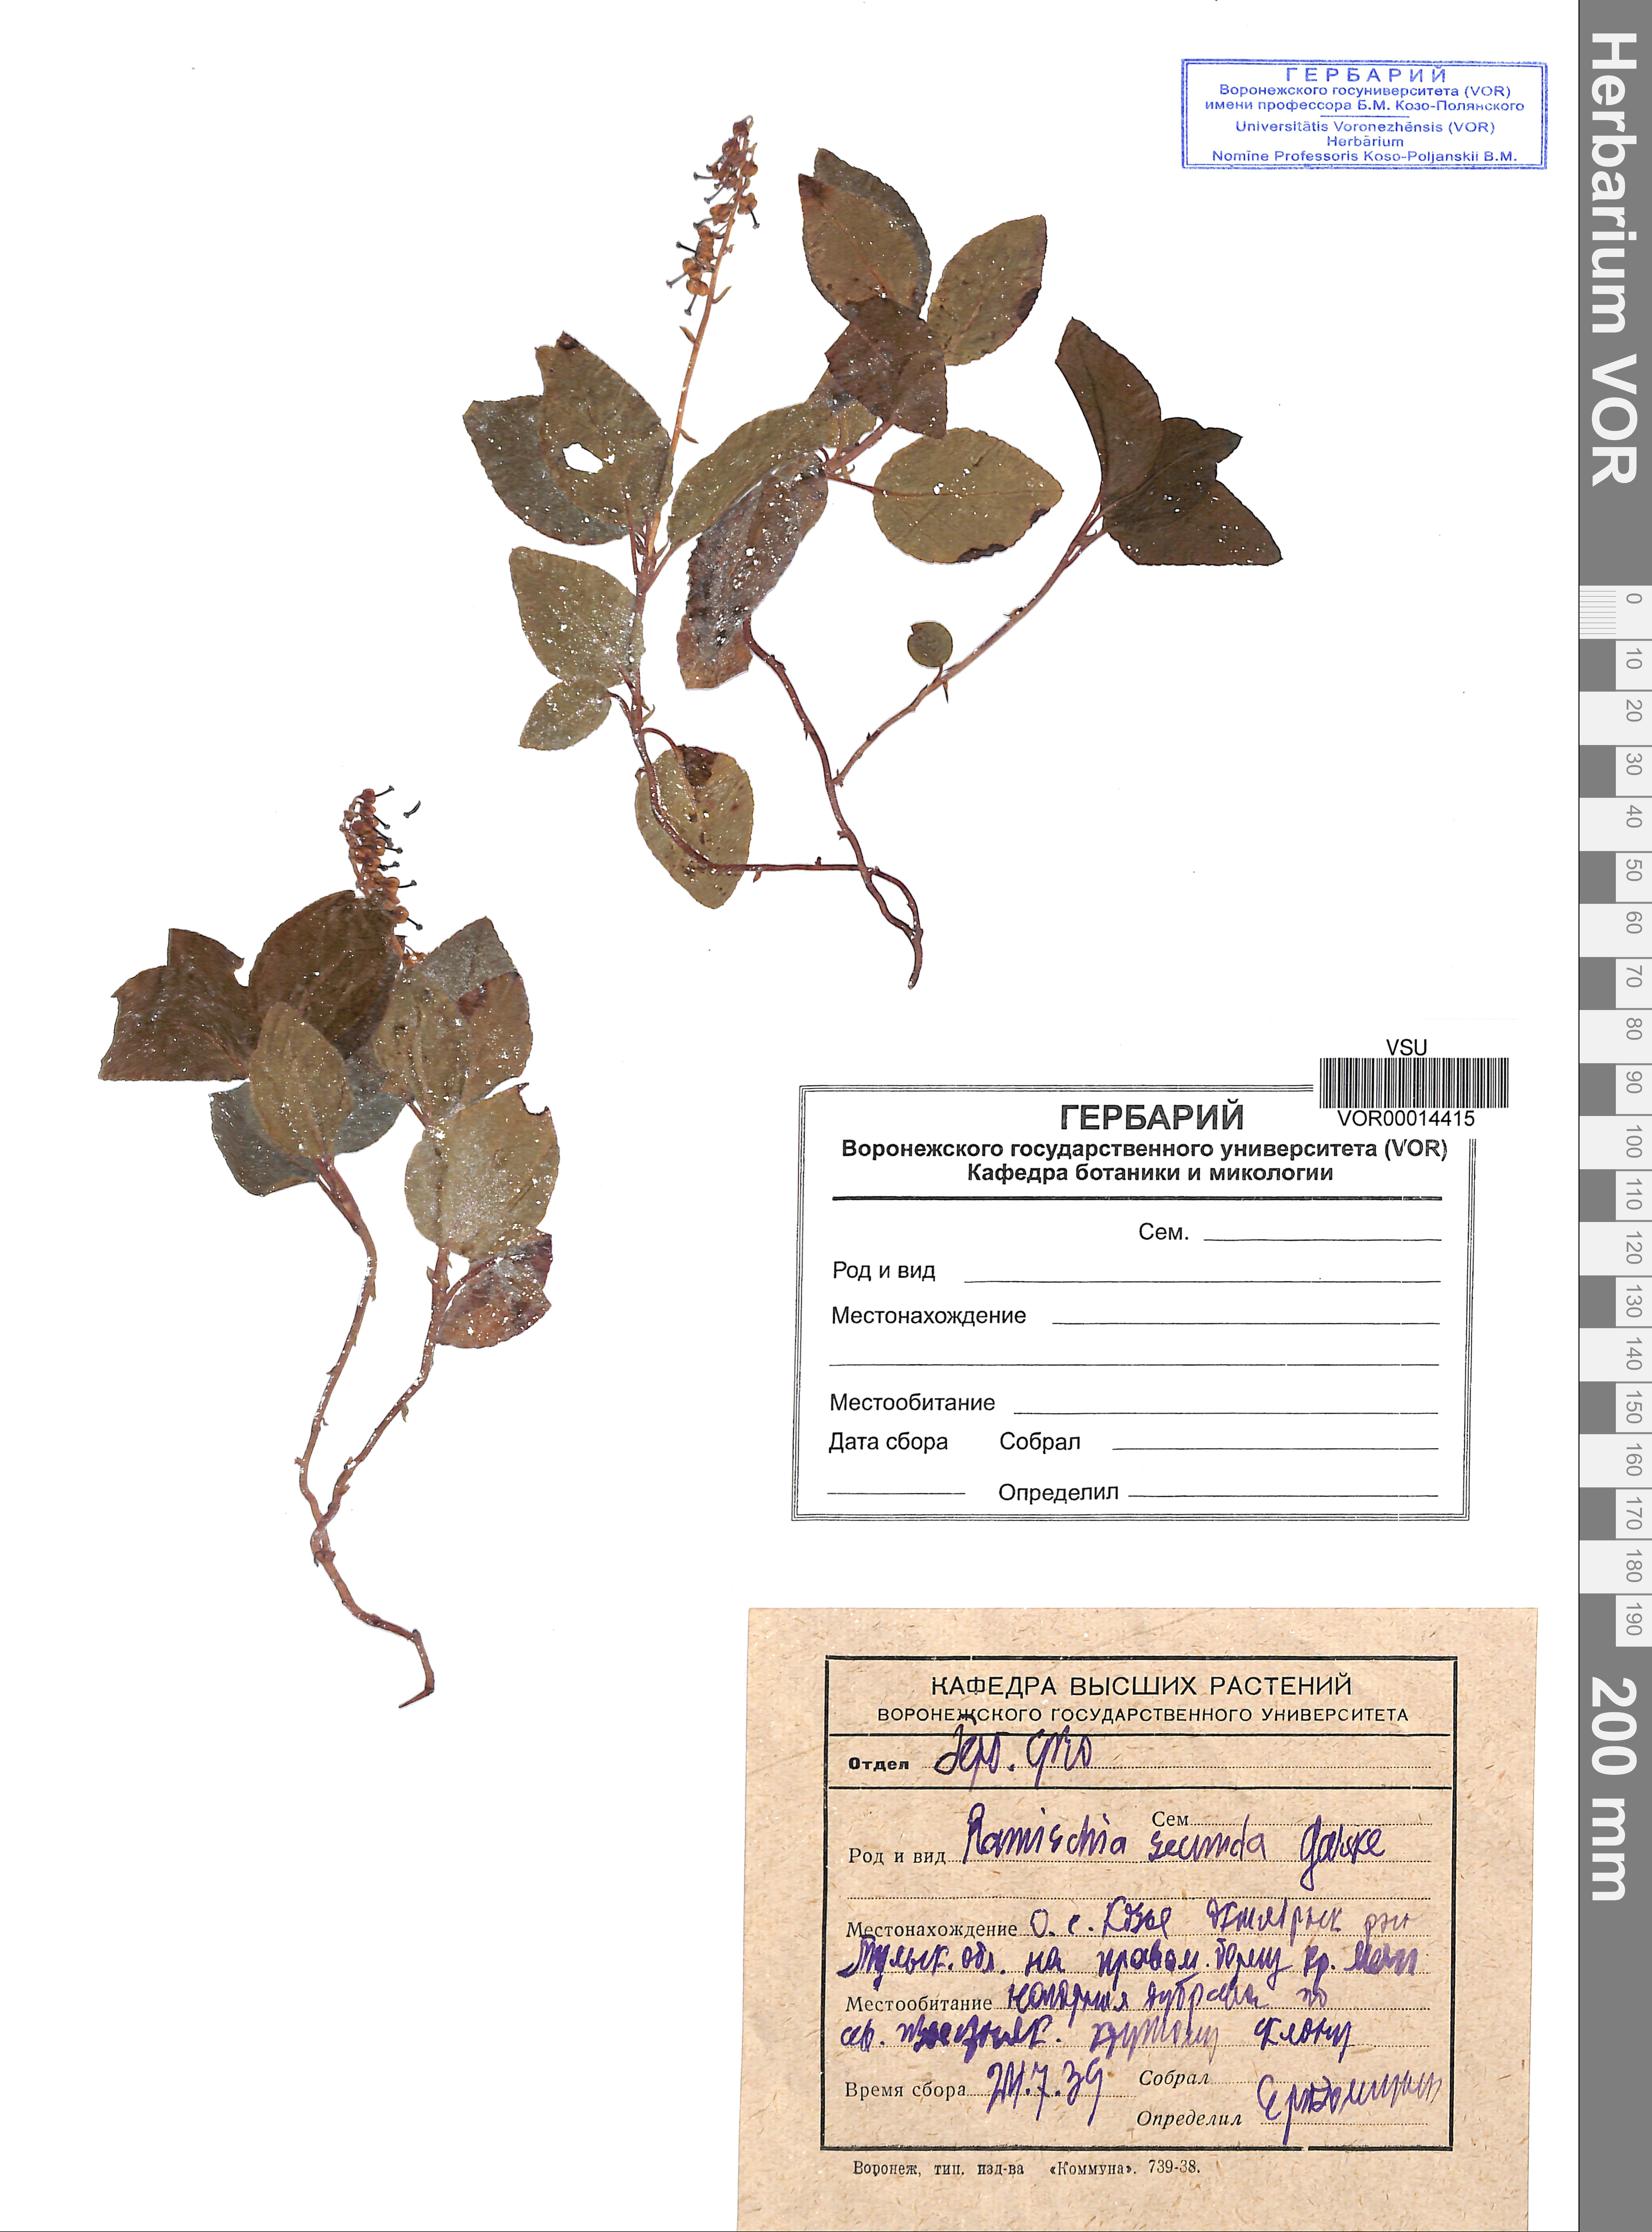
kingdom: Plantae
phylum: Tracheophyta
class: Magnoliopsida
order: Ericales
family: Ericaceae
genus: Orthilia
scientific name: Orthilia secunda
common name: One-sided orthilia
